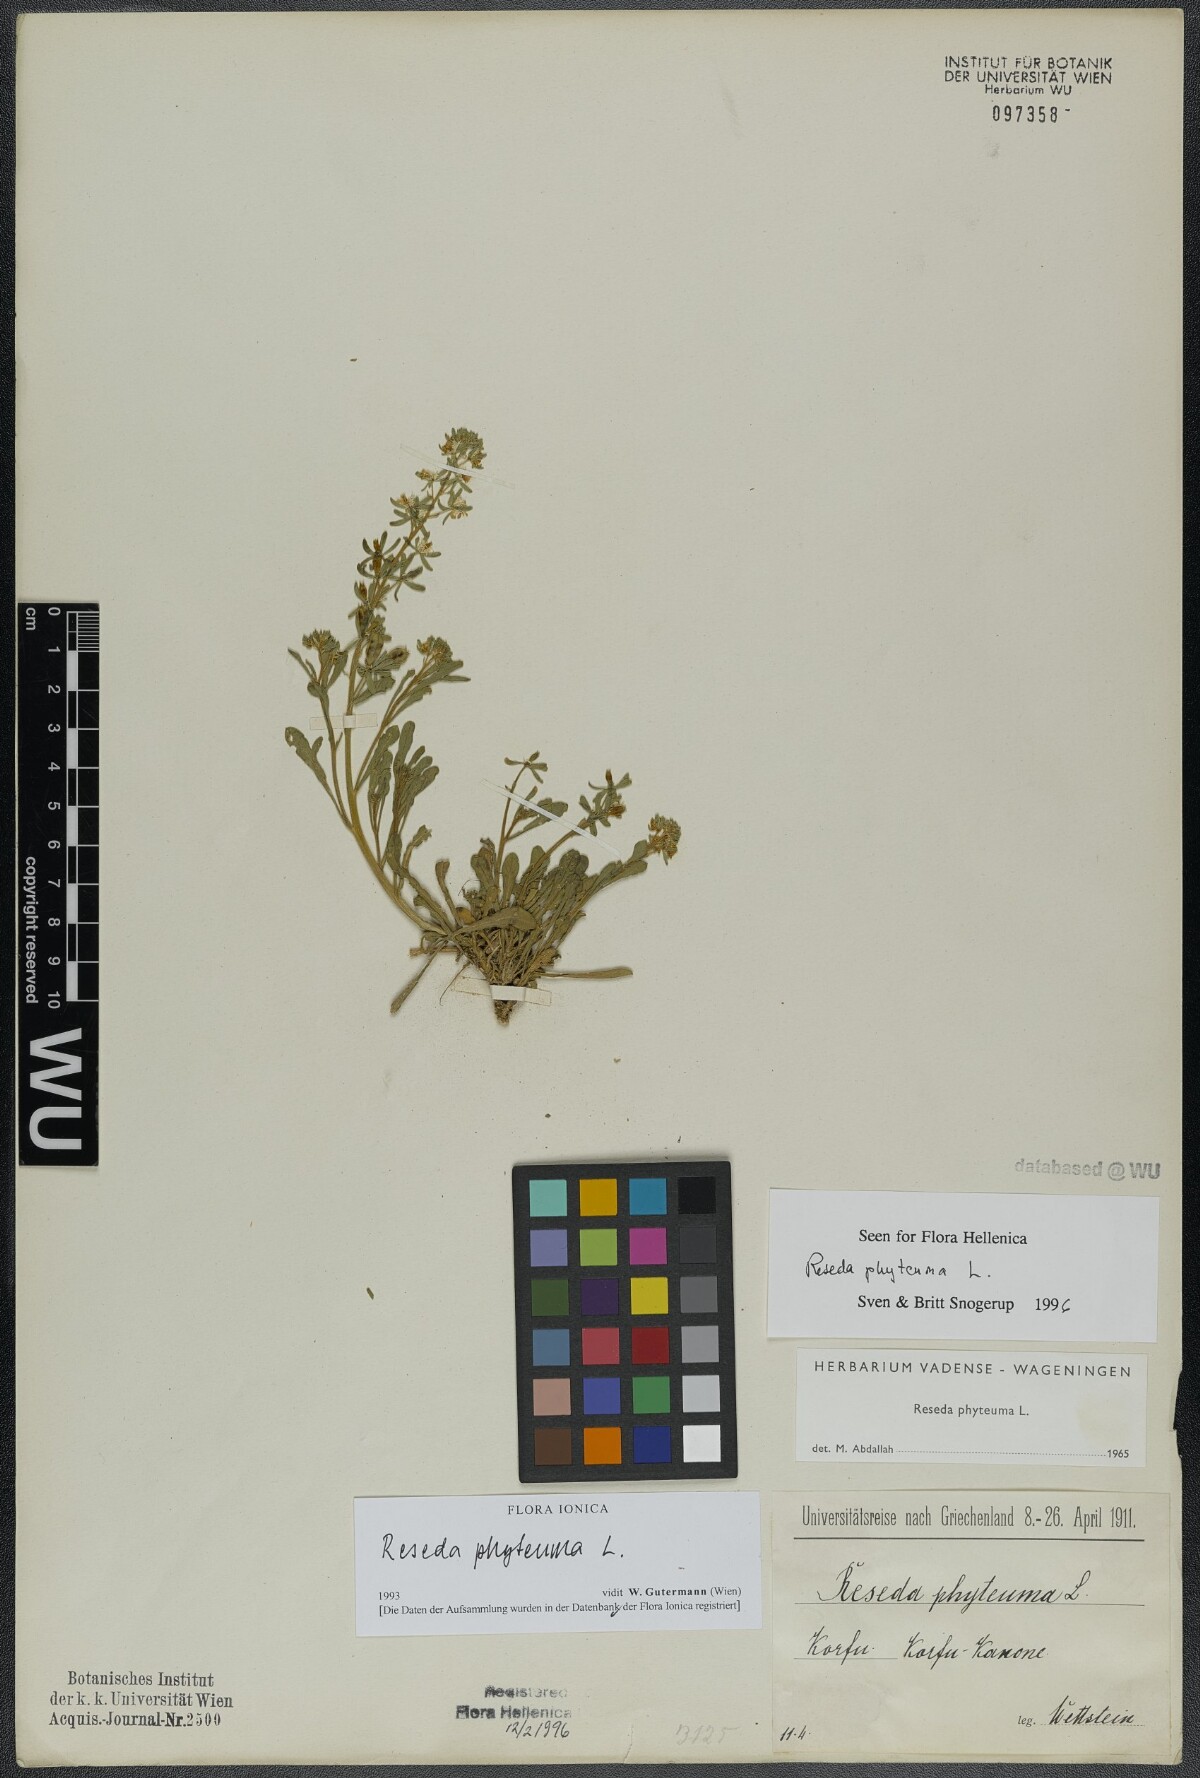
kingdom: Plantae
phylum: Tracheophyta
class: Magnoliopsida
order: Brassicales
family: Resedaceae
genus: Reseda
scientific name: Reseda phyteuma
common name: Corn mignonette
